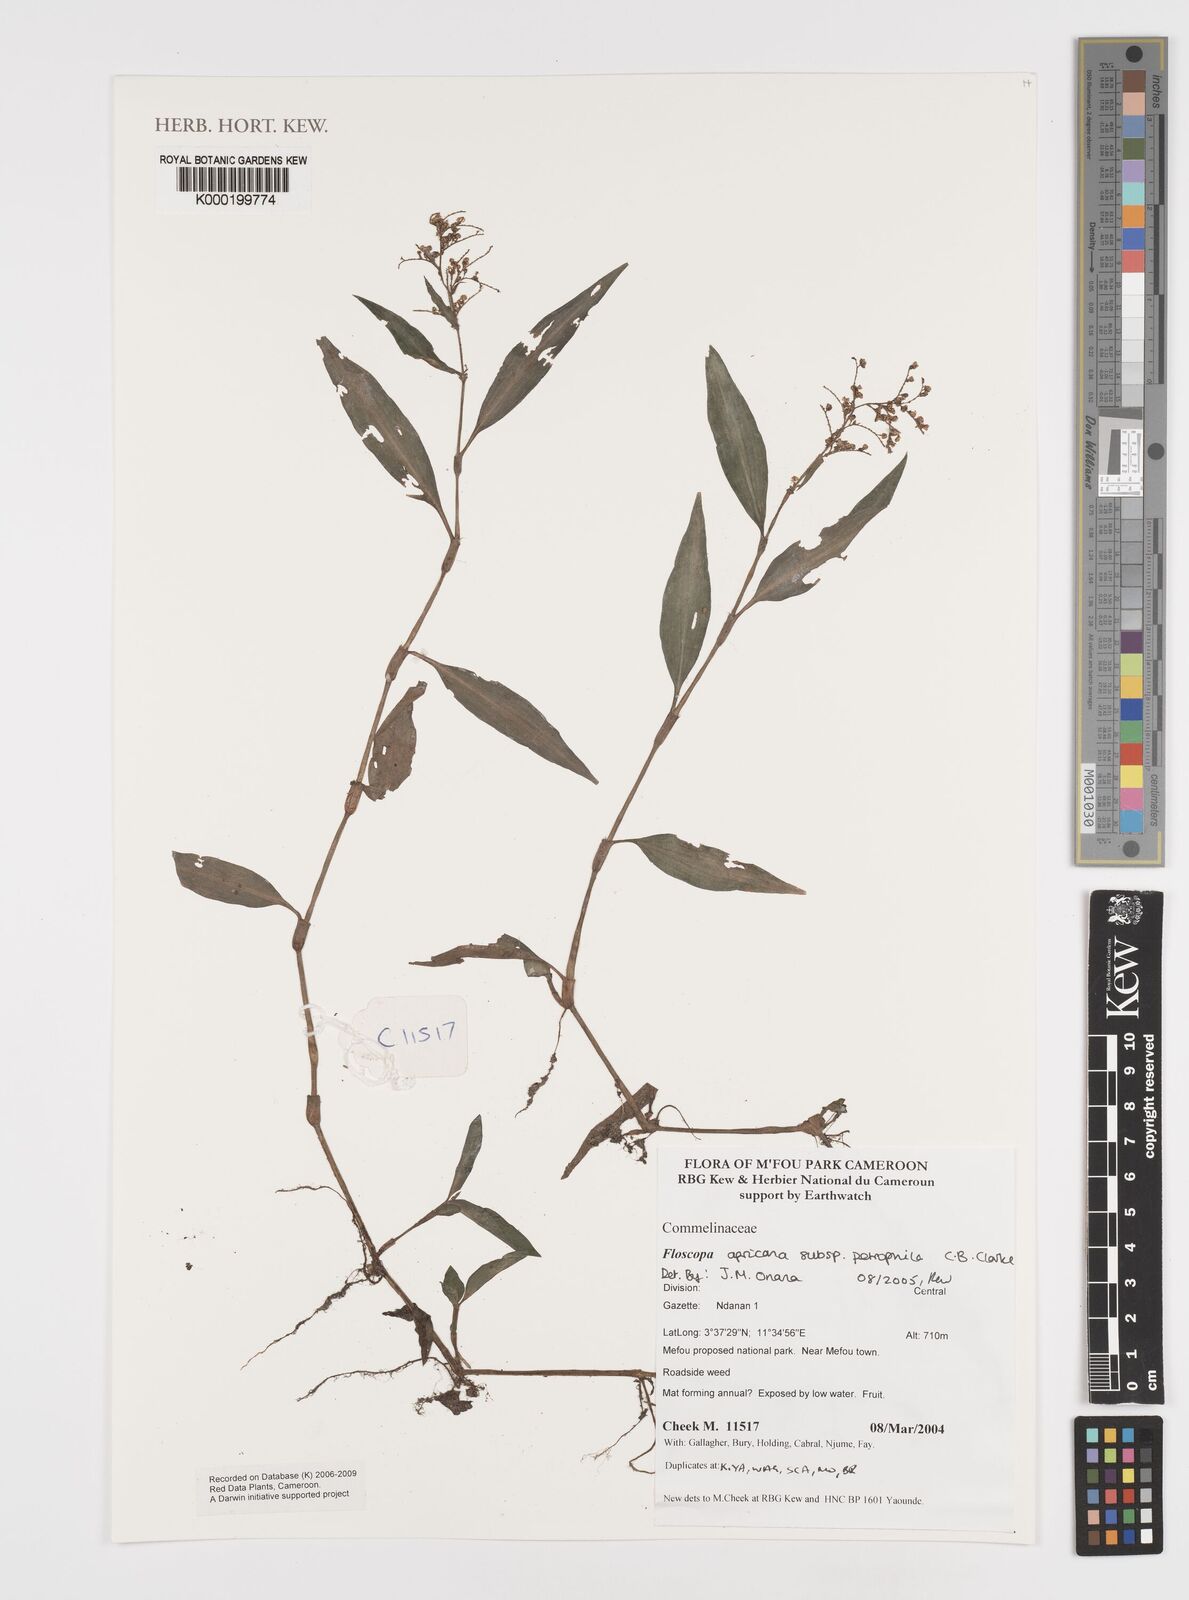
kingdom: Plantae
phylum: Tracheophyta
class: Liliopsida
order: Commelinales
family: Commelinaceae
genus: Floscopa
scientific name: Floscopa africana
